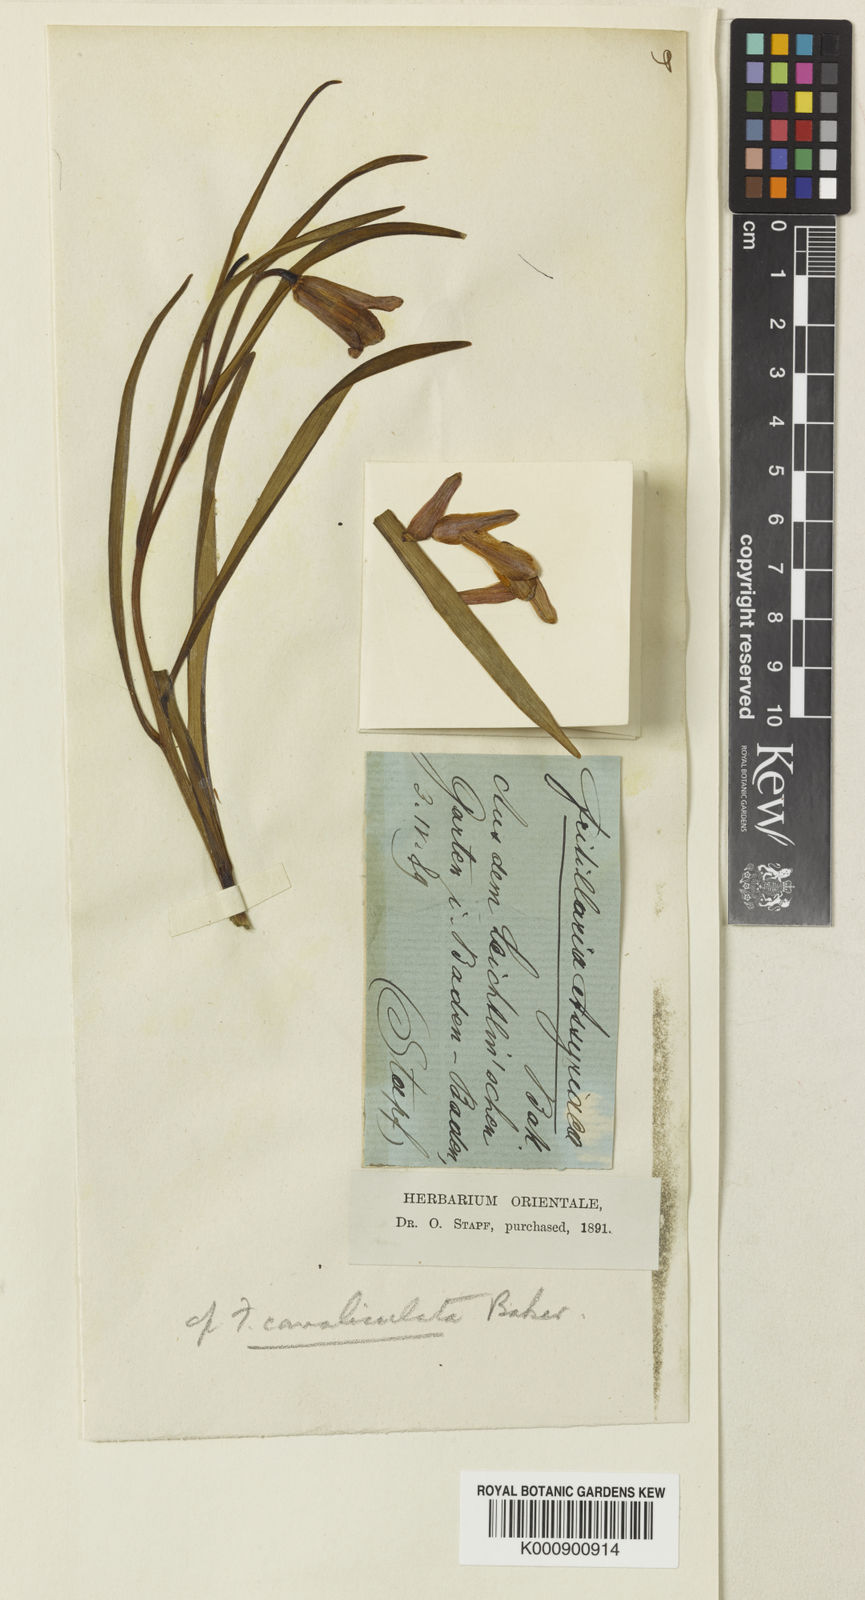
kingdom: Plantae
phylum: Tracheophyta
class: Liliopsida
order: Liliales
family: Liliaceae
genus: Fritillaria
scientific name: Fritillaria bucharica
